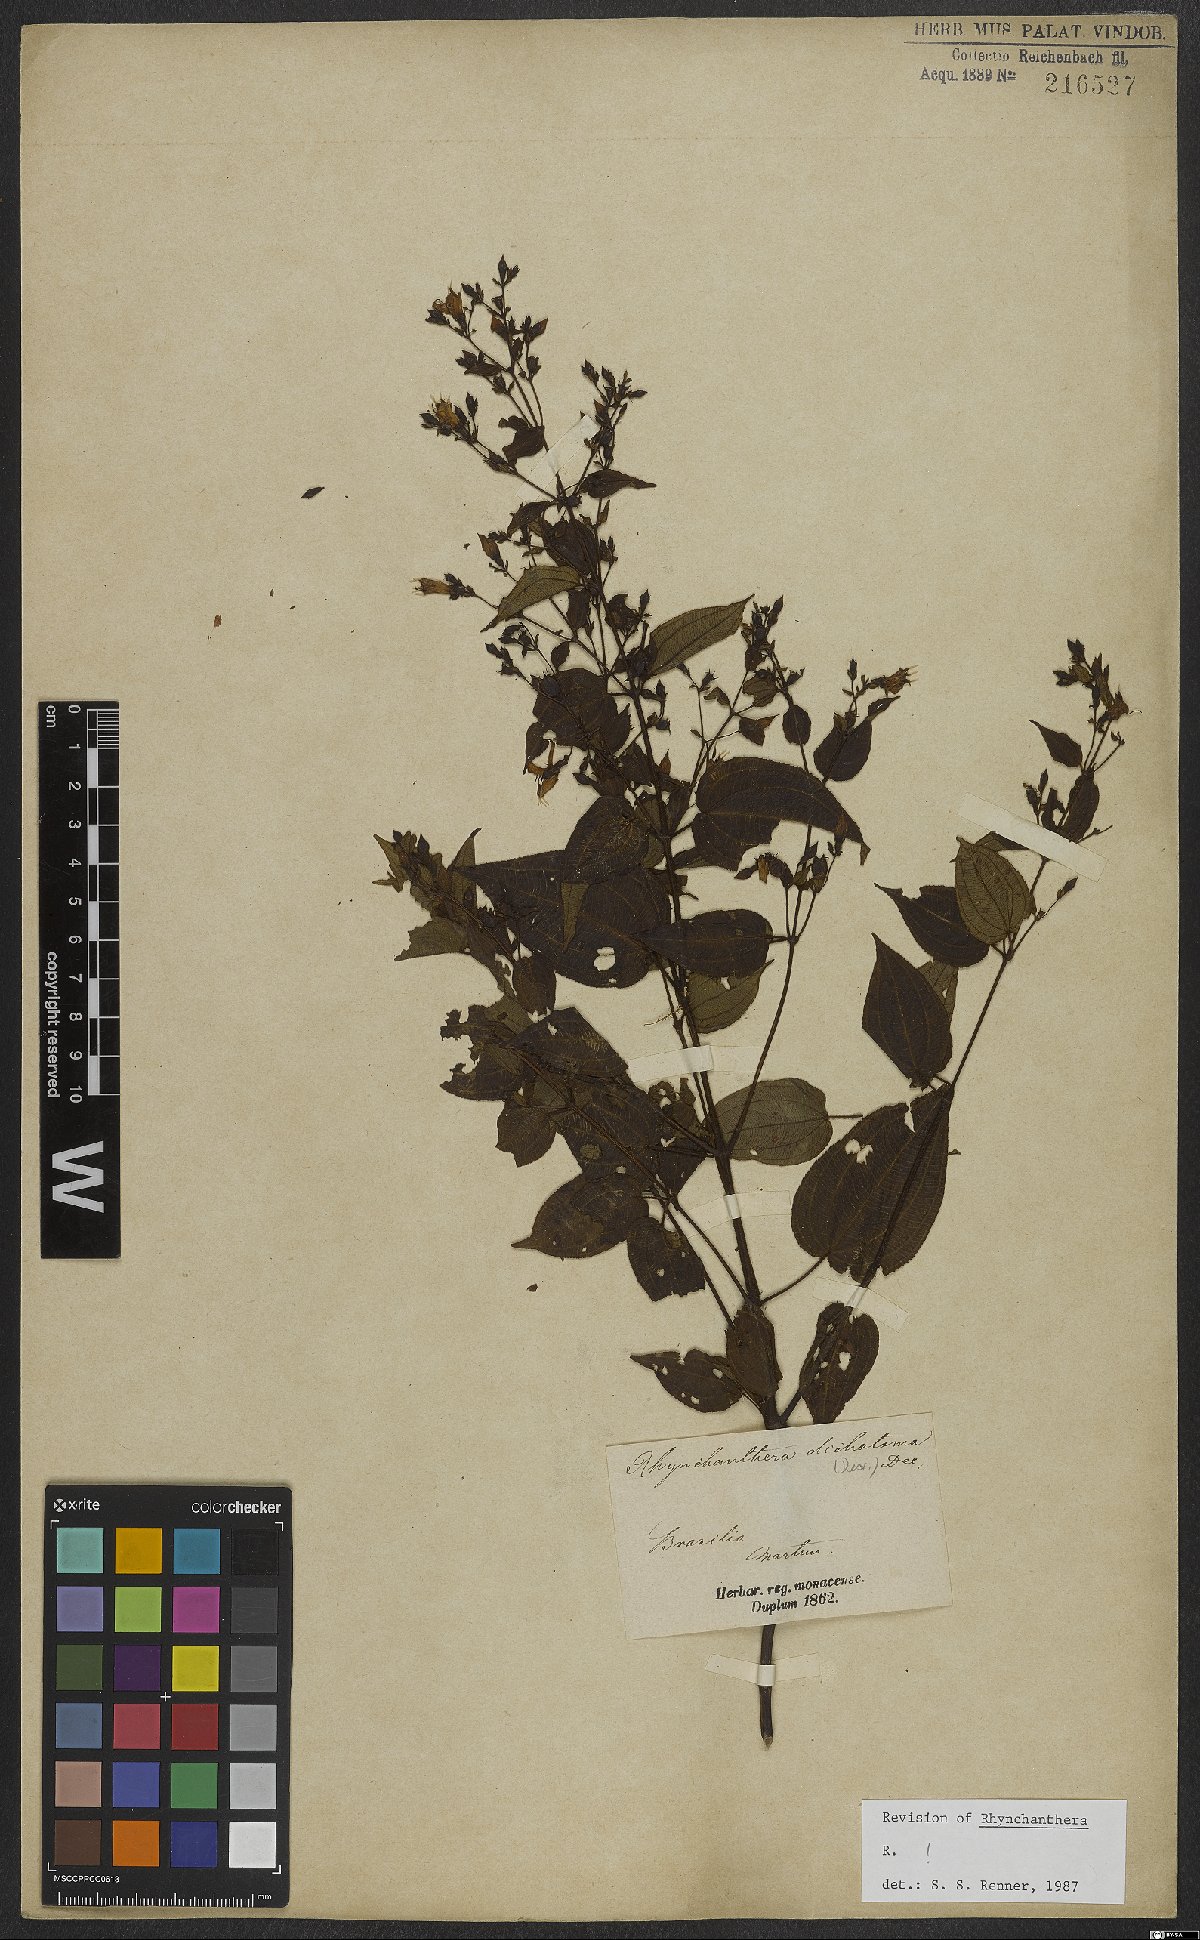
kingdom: Plantae
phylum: Tracheophyta
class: Magnoliopsida
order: Myrtales
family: Melastomataceae
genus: Rhynchanthera
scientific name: Rhynchanthera dichotoma
